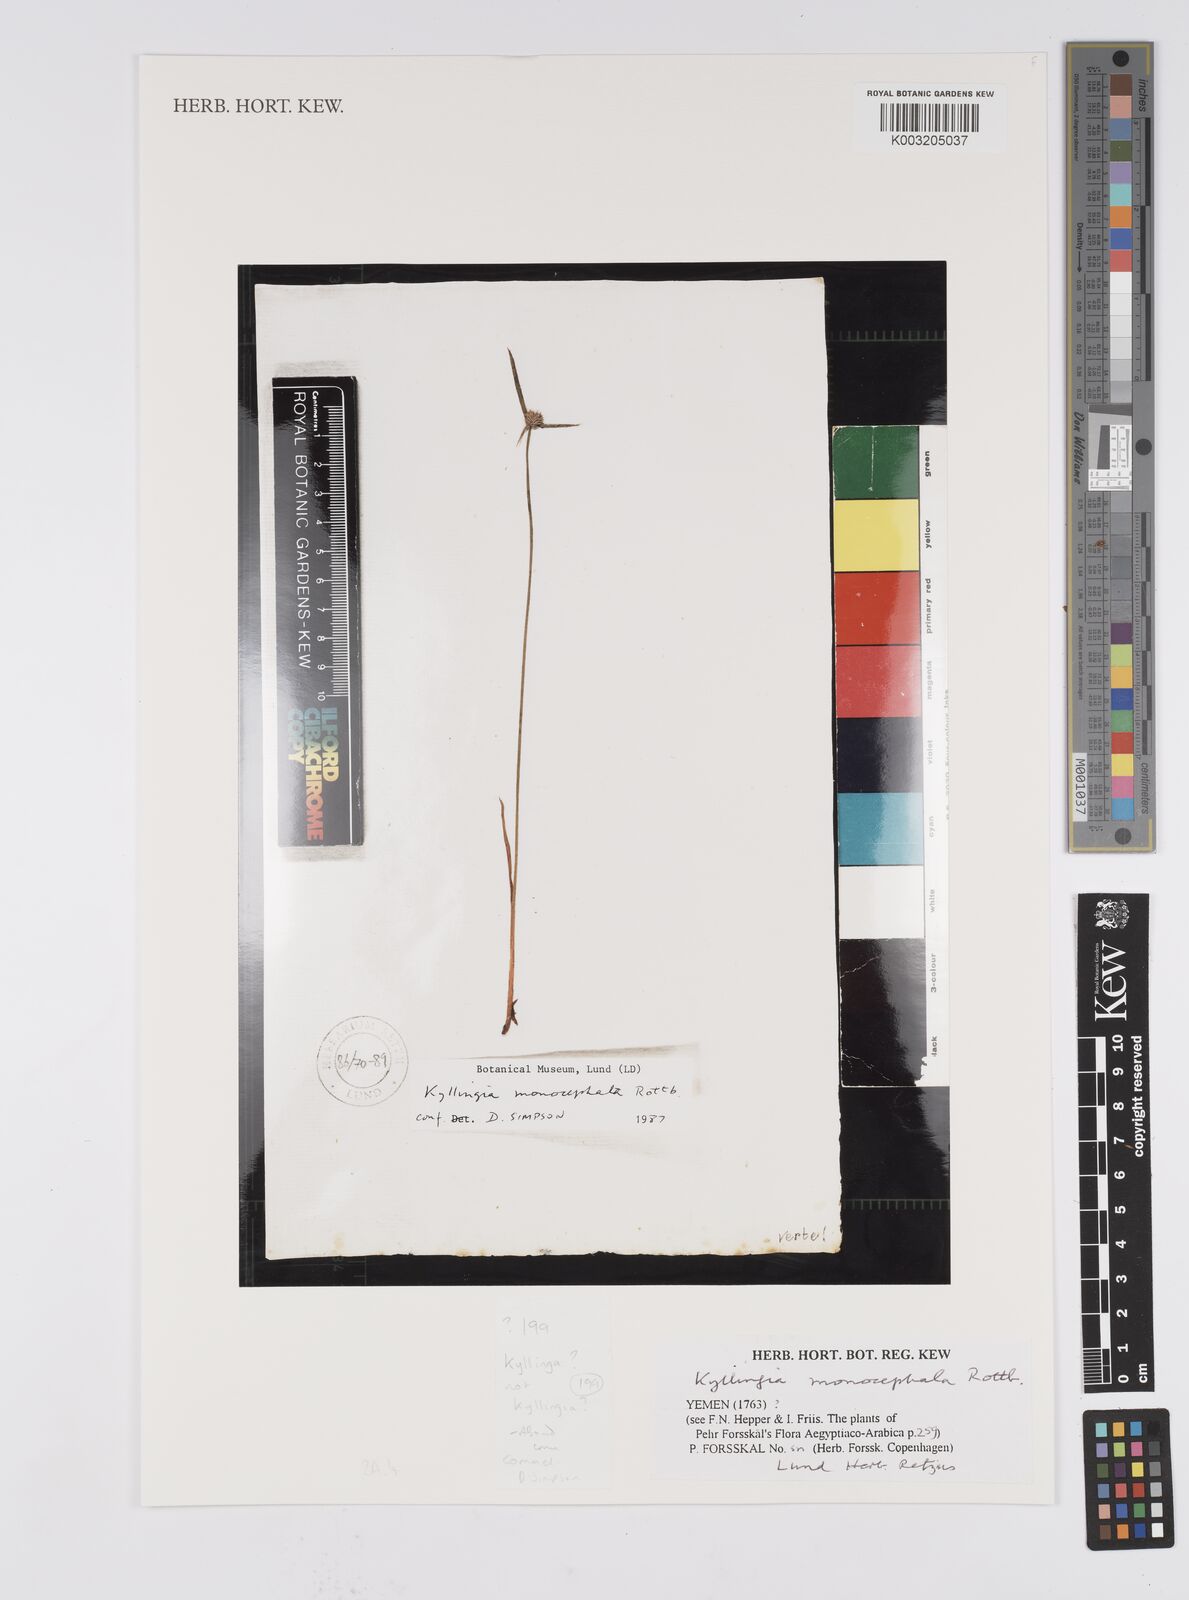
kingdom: Plantae
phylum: Tracheophyta
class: Liliopsida
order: Poales
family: Cyperaceae
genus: Cyperus
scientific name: Cyperus
